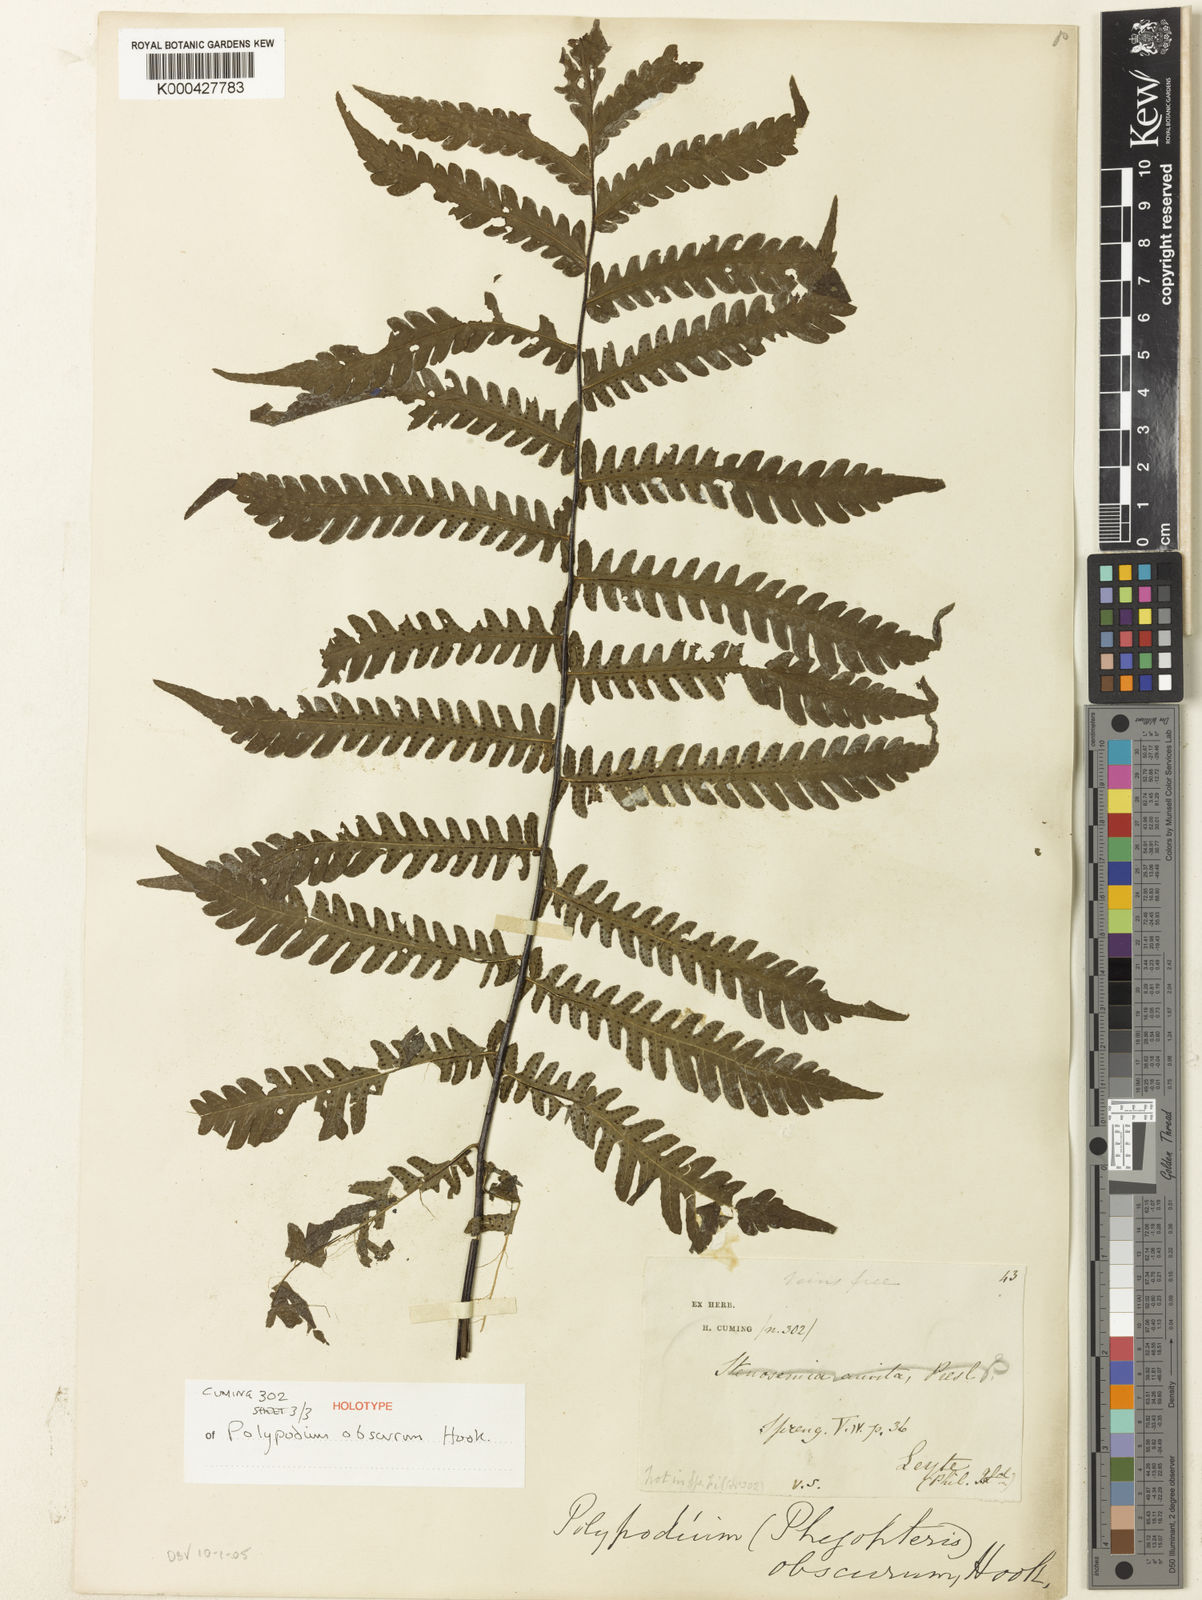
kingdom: Plantae
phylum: Tracheophyta
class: Polypodiopsida
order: Polypodiales
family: Tectariaceae
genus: Tectaria
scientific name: Tectaria sagenioides
